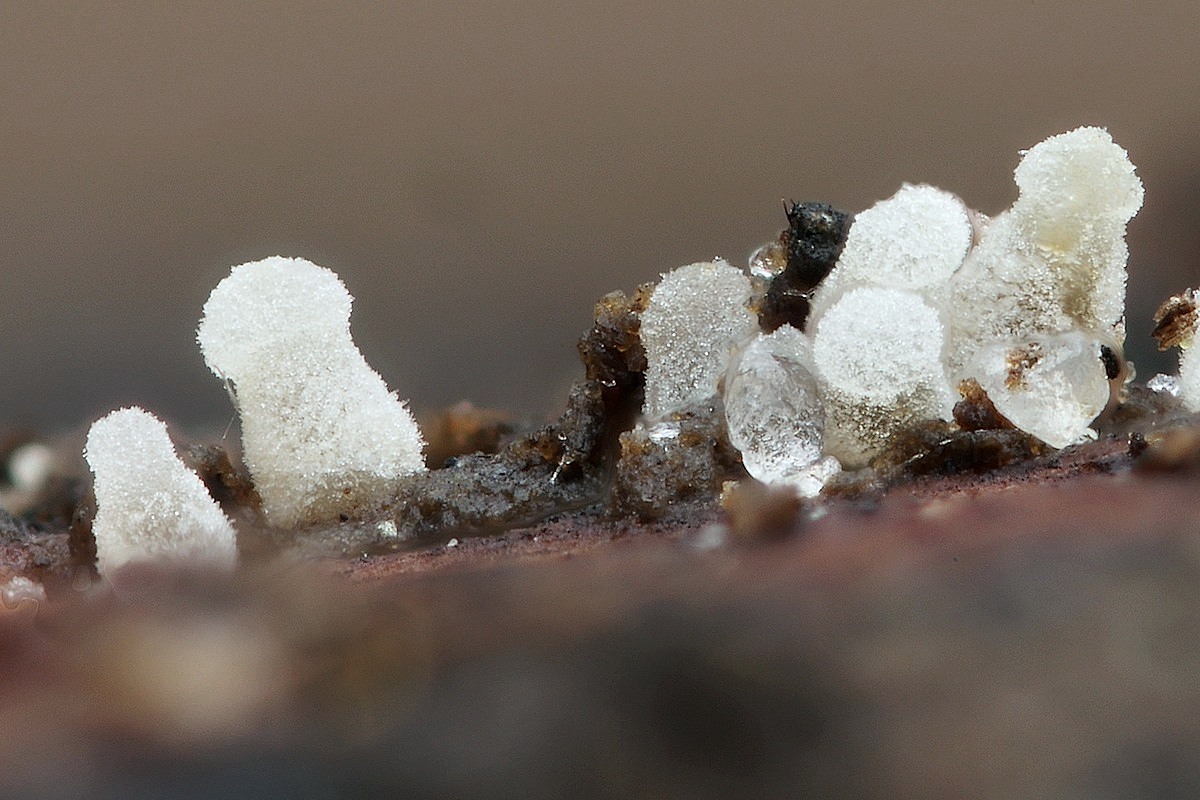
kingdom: Fungi
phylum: Basidiomycota
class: Agaricomycetes
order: Agaricales
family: Mycenaceae
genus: Mycena
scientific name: Mycena
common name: huesvamp
